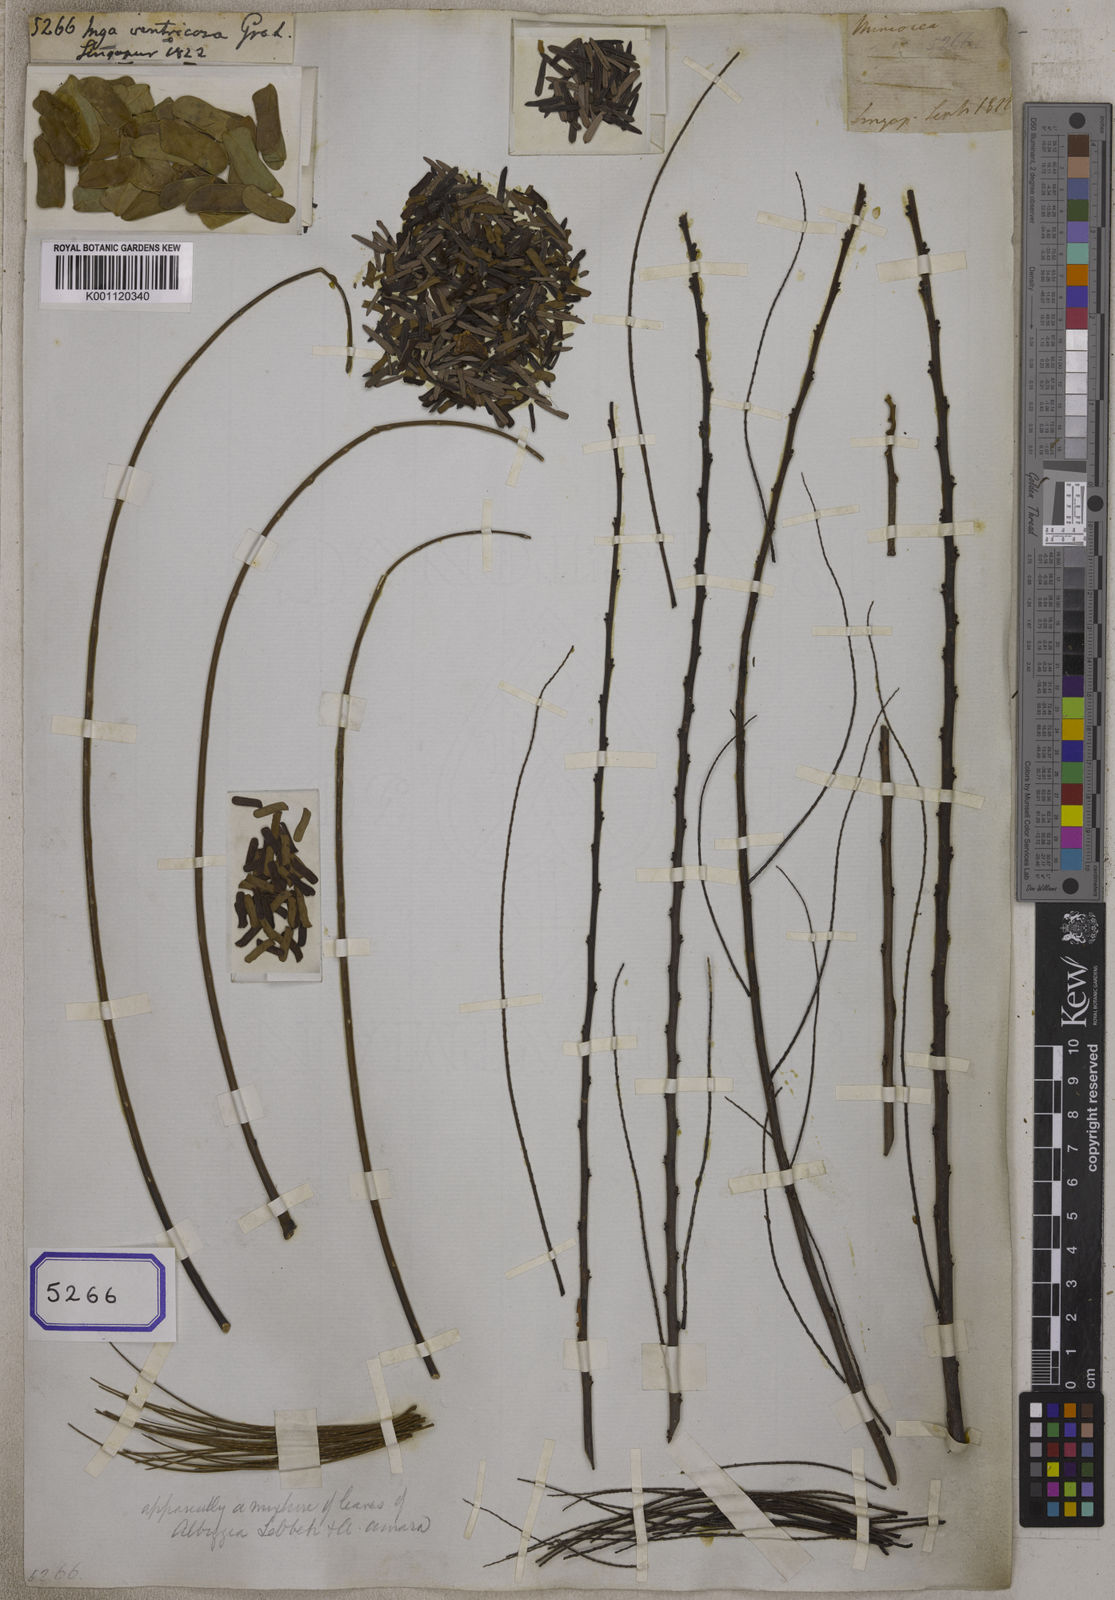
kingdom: Plantae
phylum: Tracheophyta
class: Magnoliopsida
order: Fabales
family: Fabaceae
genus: Serianthes
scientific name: Serianthes grandiflora
